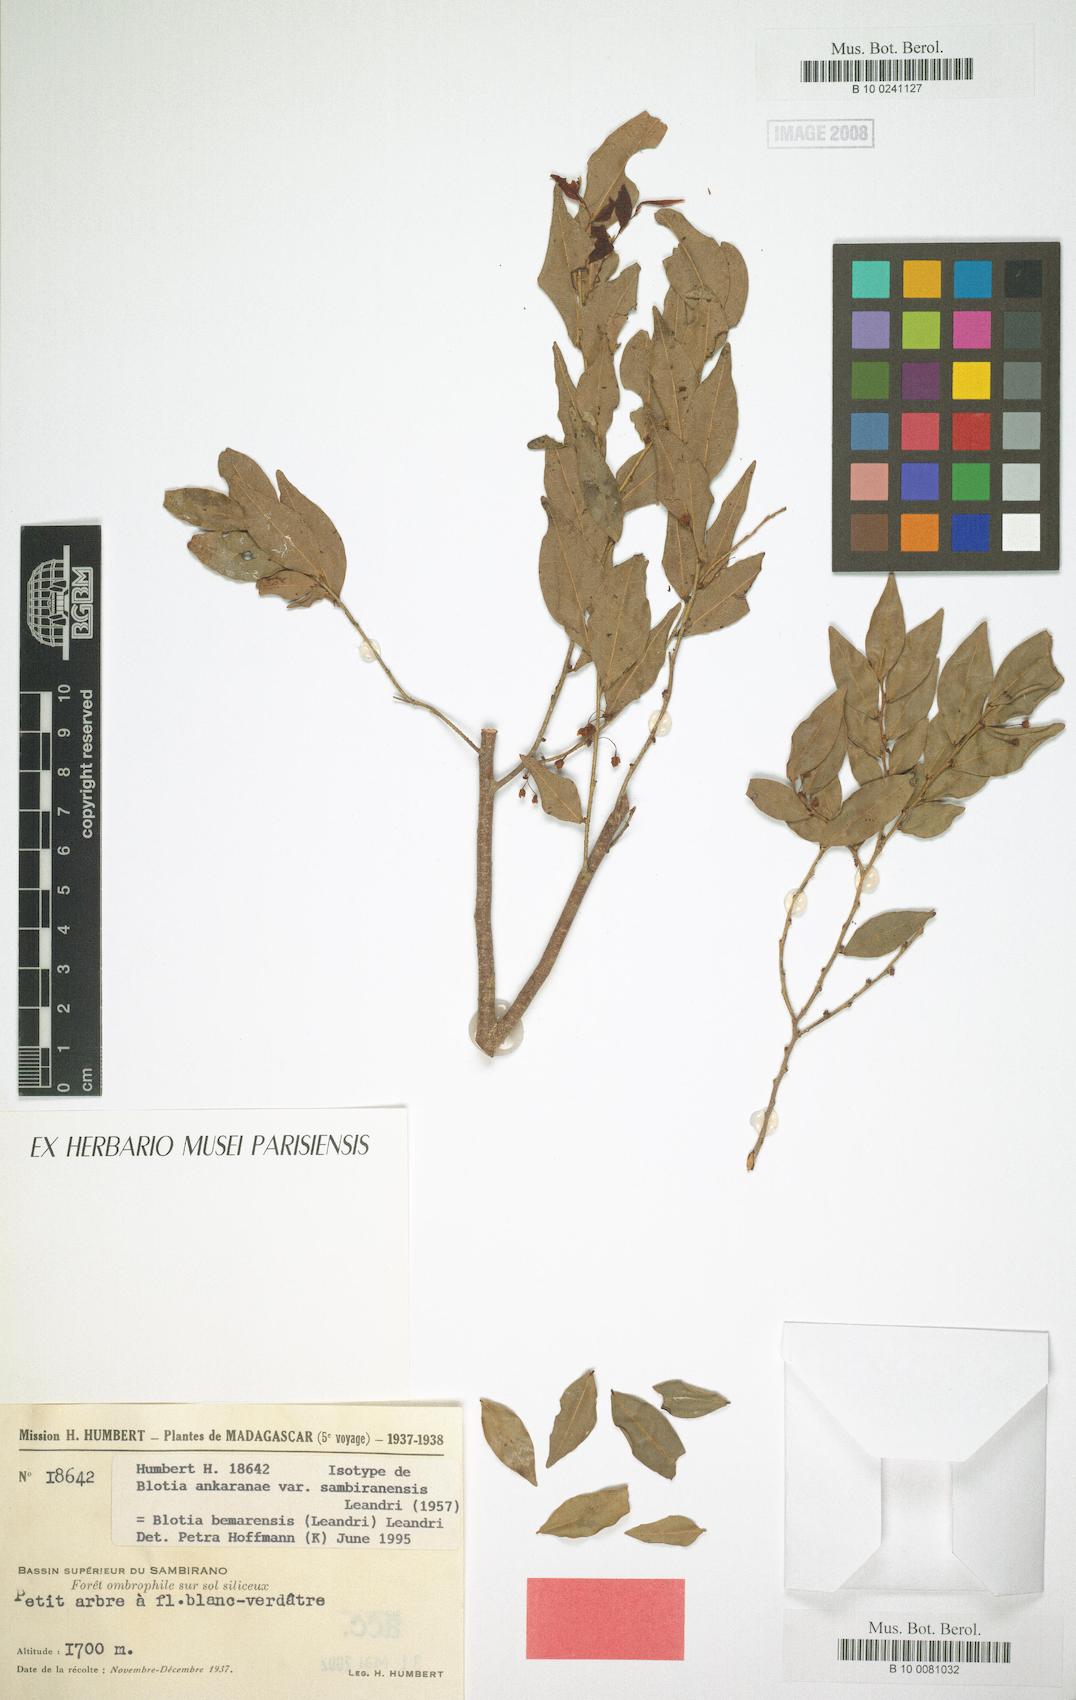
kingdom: Plantae
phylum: Tracheophyta
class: Magnoliopsida
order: Malpighiales
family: Phyllanthaceae
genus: Wielandia
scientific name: Wielandia bemarensis
